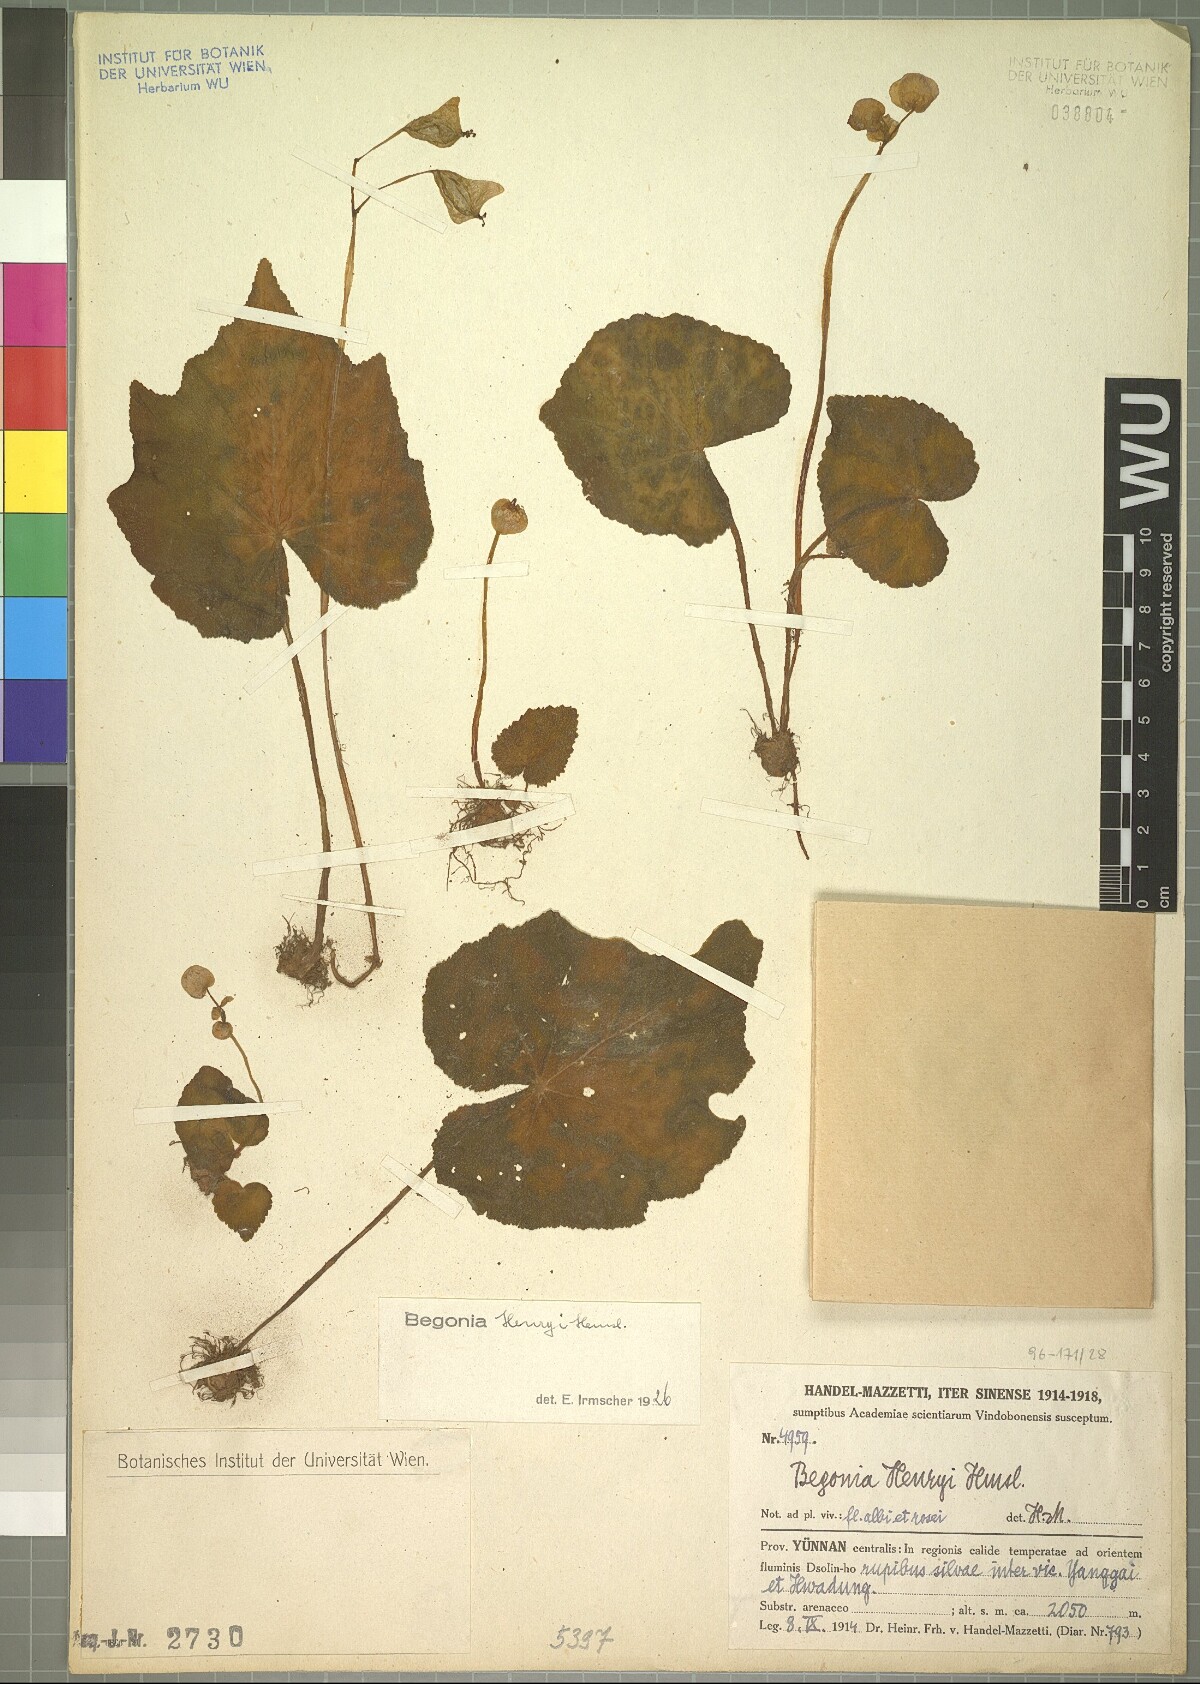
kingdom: Plantae
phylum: Tracheophyta
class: Magnoliopsida
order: Cucurbitales
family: Begoniaceae
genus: Begonia
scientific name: Begonia henryi
